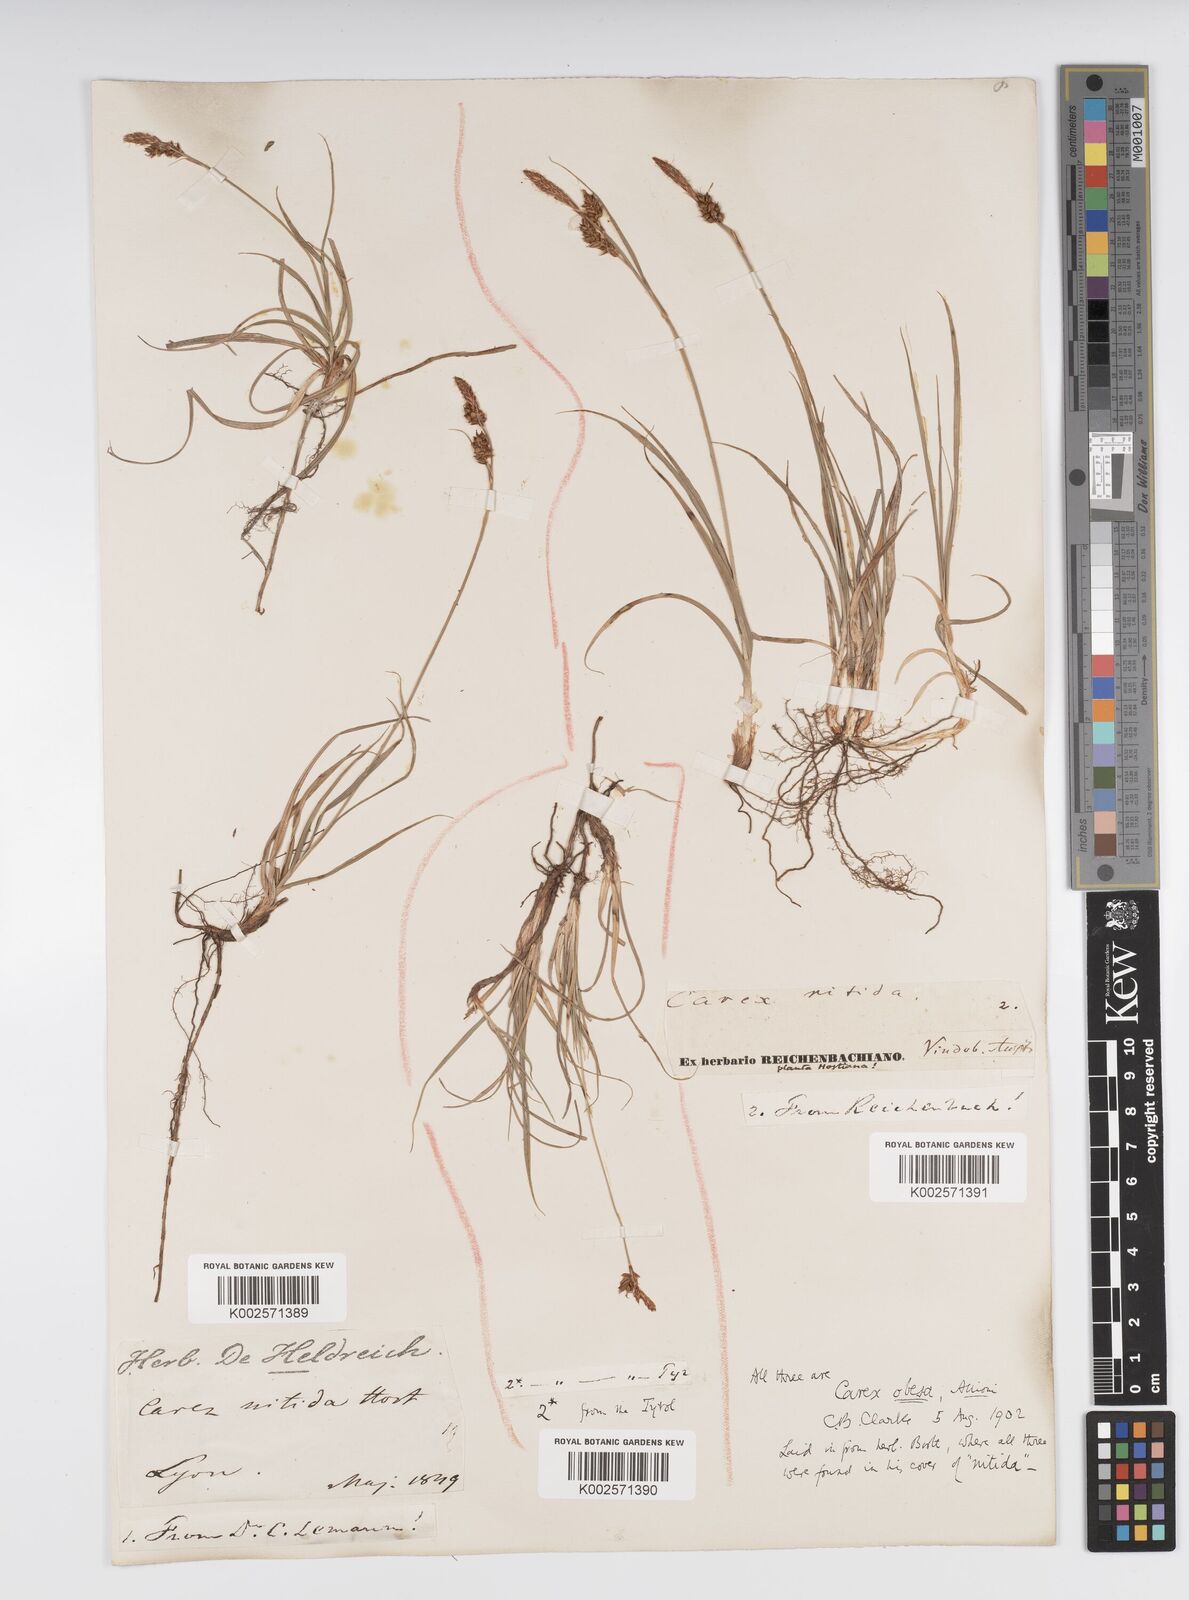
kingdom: Plantae
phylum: Tracheophyta
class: Liliopsida
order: Poales
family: Cyperaceae
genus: Carex
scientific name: Carex liparocarpos
